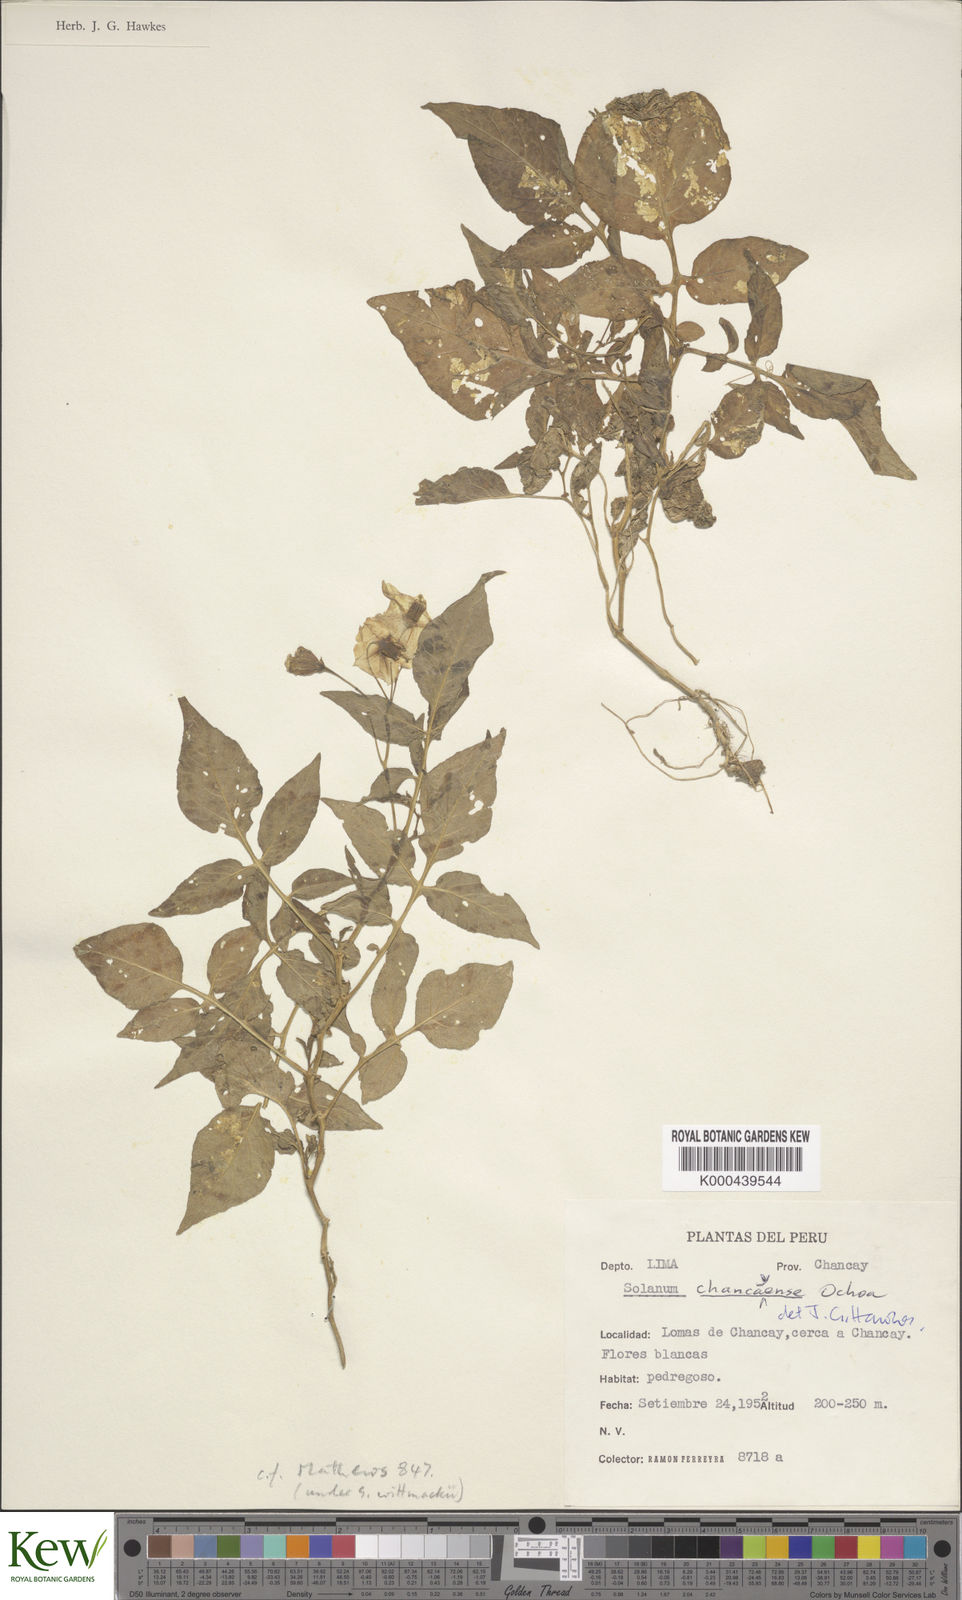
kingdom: Plantae
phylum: Tracheophyta
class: Magnoliopsida
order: Solanales
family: Solanaceae
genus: Solanum
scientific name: Solanum immite
